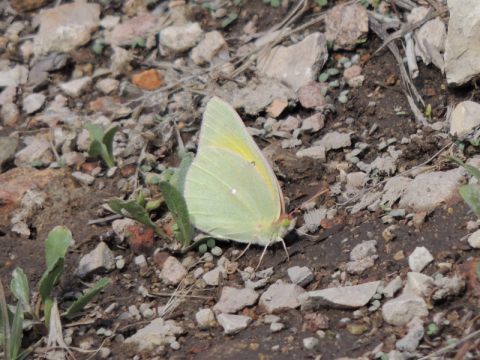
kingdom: Animalia
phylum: Arthropoda
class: Insecta
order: Lepidoptera
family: Pieridae
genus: Colias
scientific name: Colias alexandra
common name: Queen Alexandra's Sulphur
